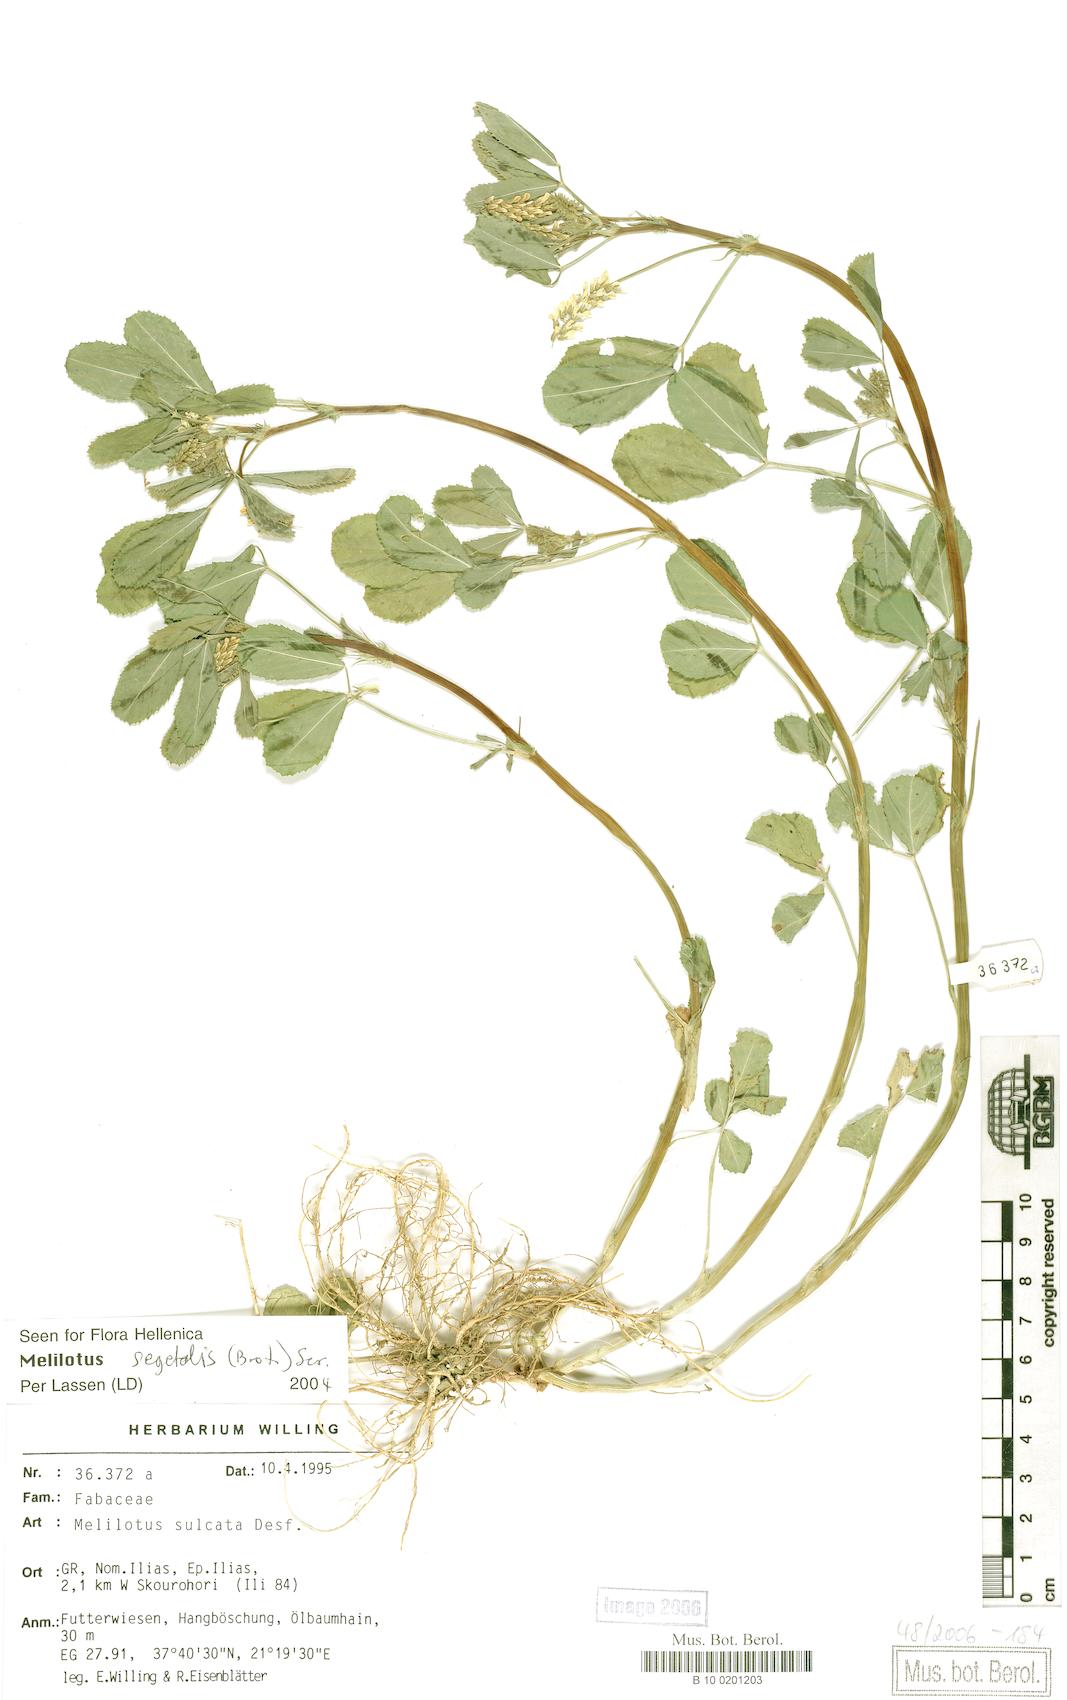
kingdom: Plantae
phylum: Tracheophyta
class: Magnoliopsida
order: Fabales
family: Fabaceae
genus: Melilotus
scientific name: Melilotus sulcatus
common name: Furrowed melilot
